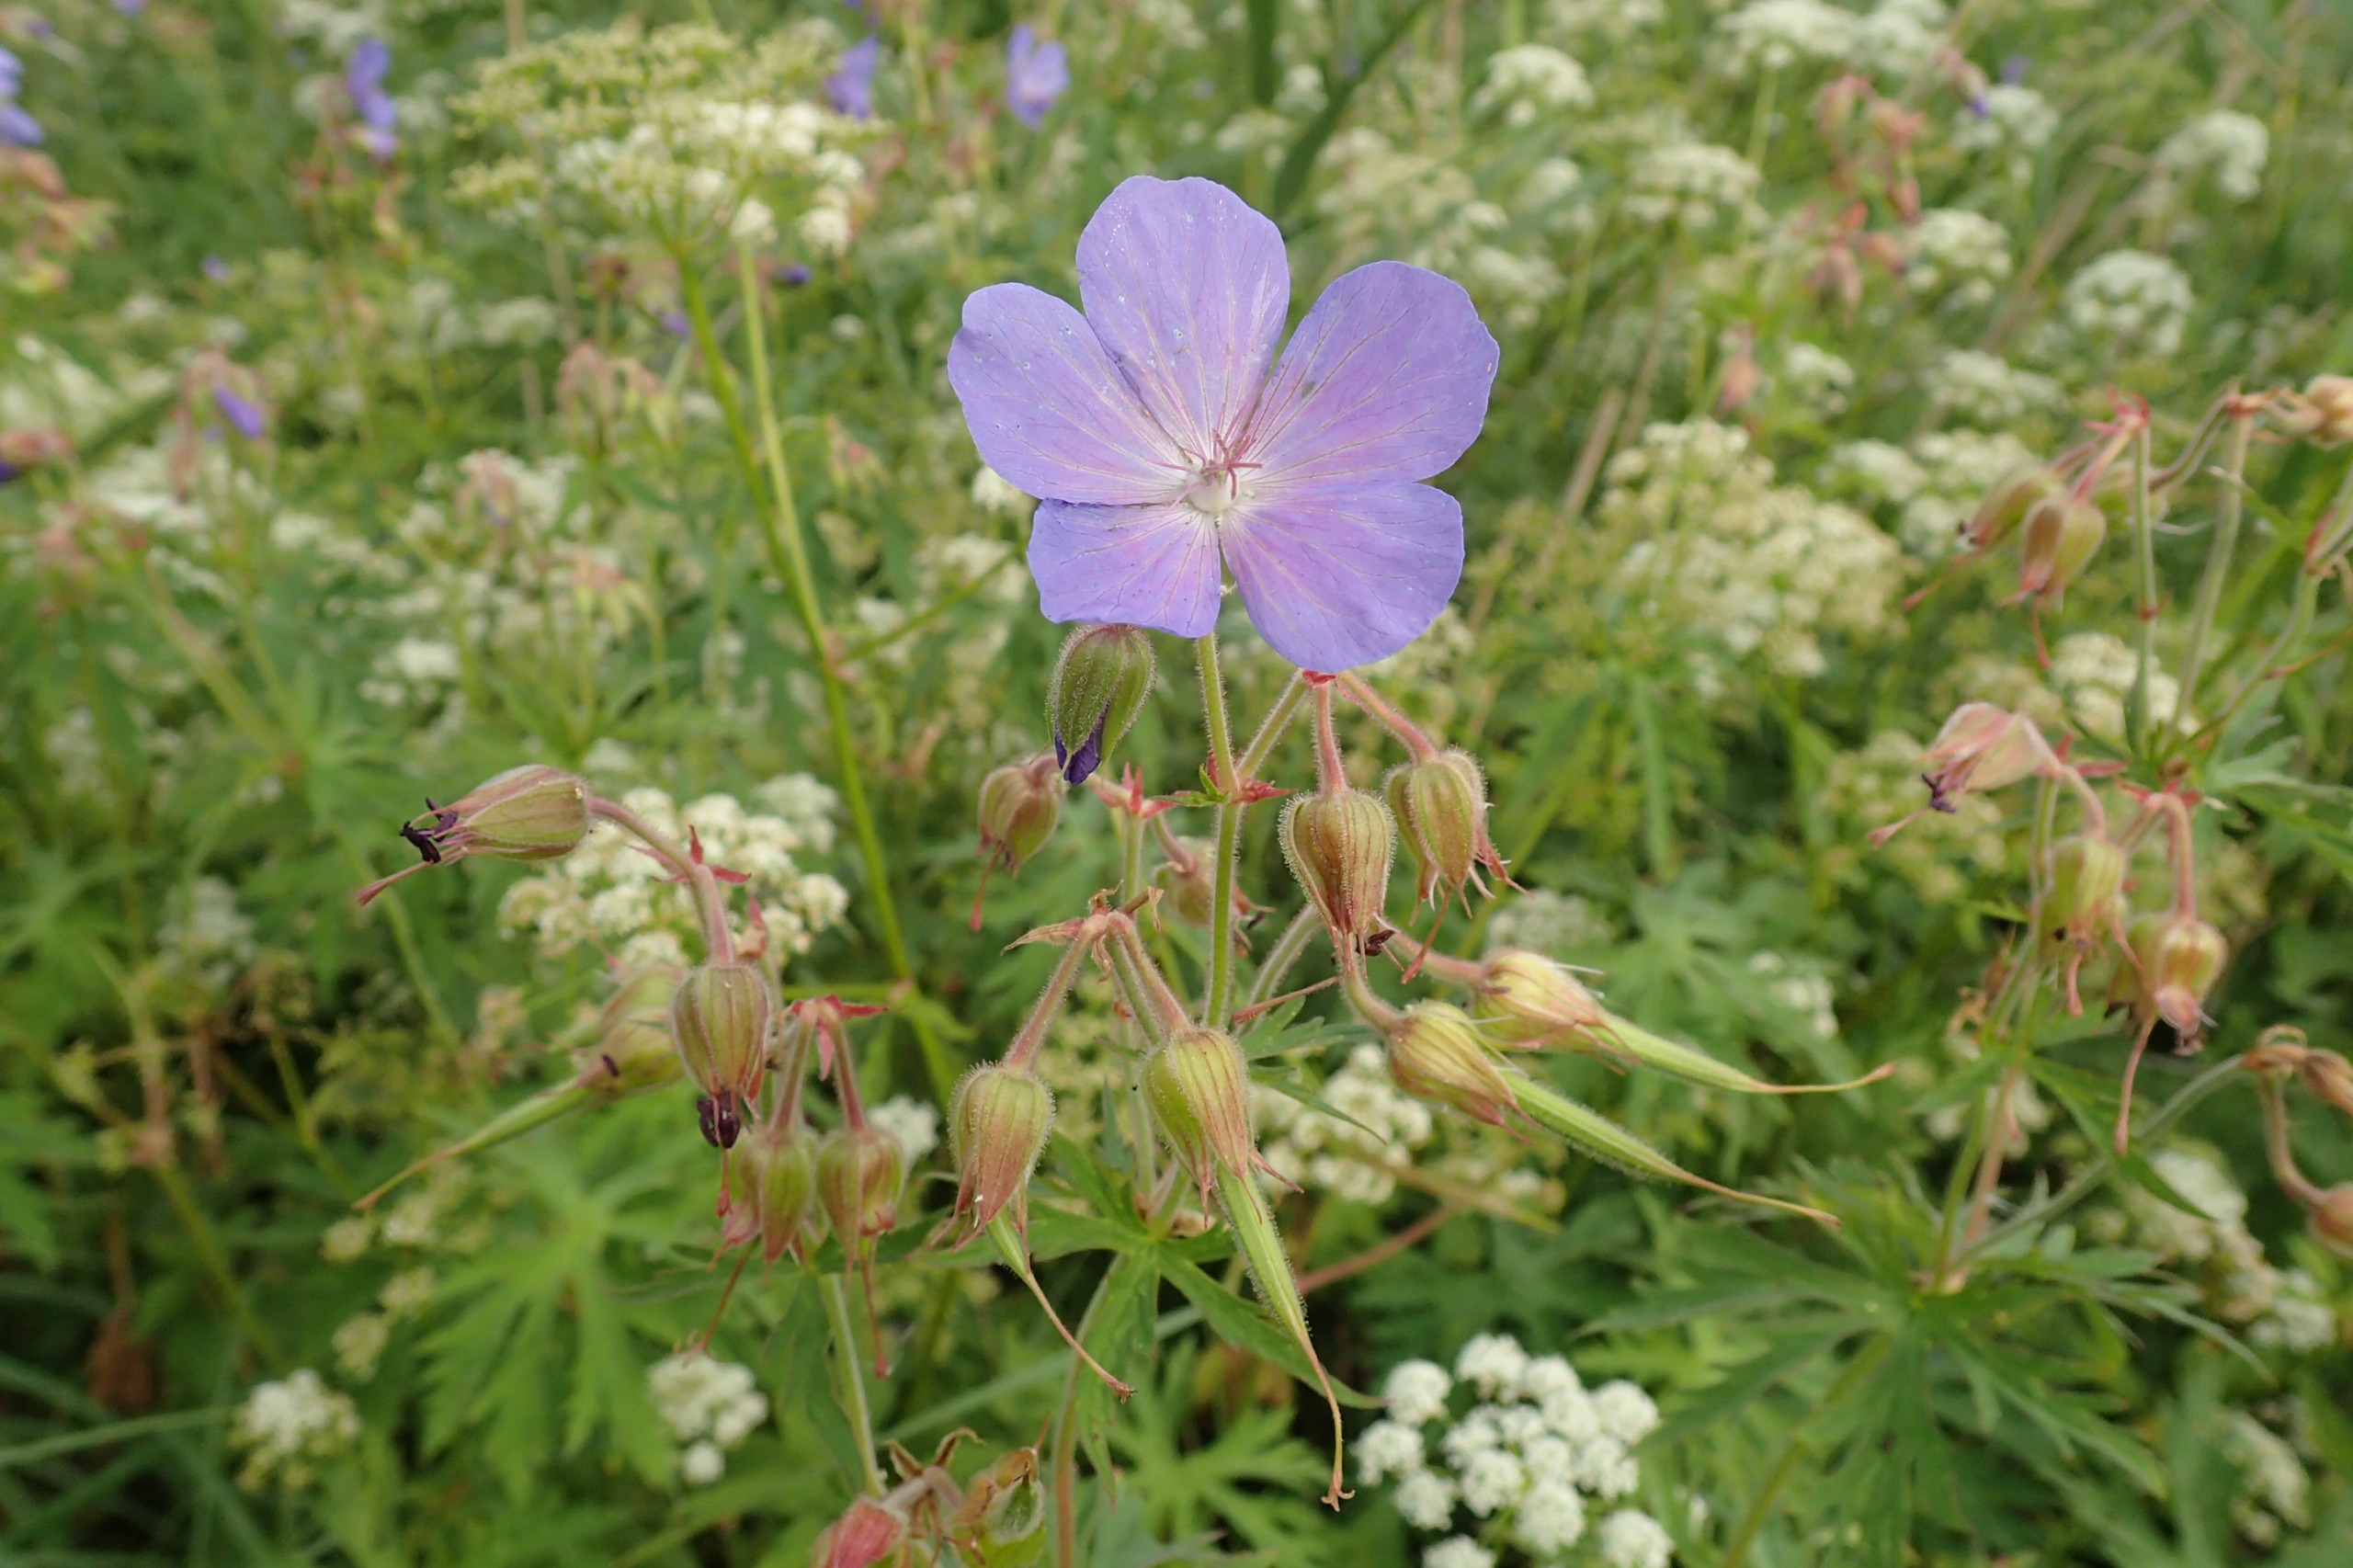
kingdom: Plantae
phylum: Tracheophyta
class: Magnoliopsida
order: Geraniales
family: Geraniaceae
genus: Geranium
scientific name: Geranium pratense
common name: Eng-storkenæb
